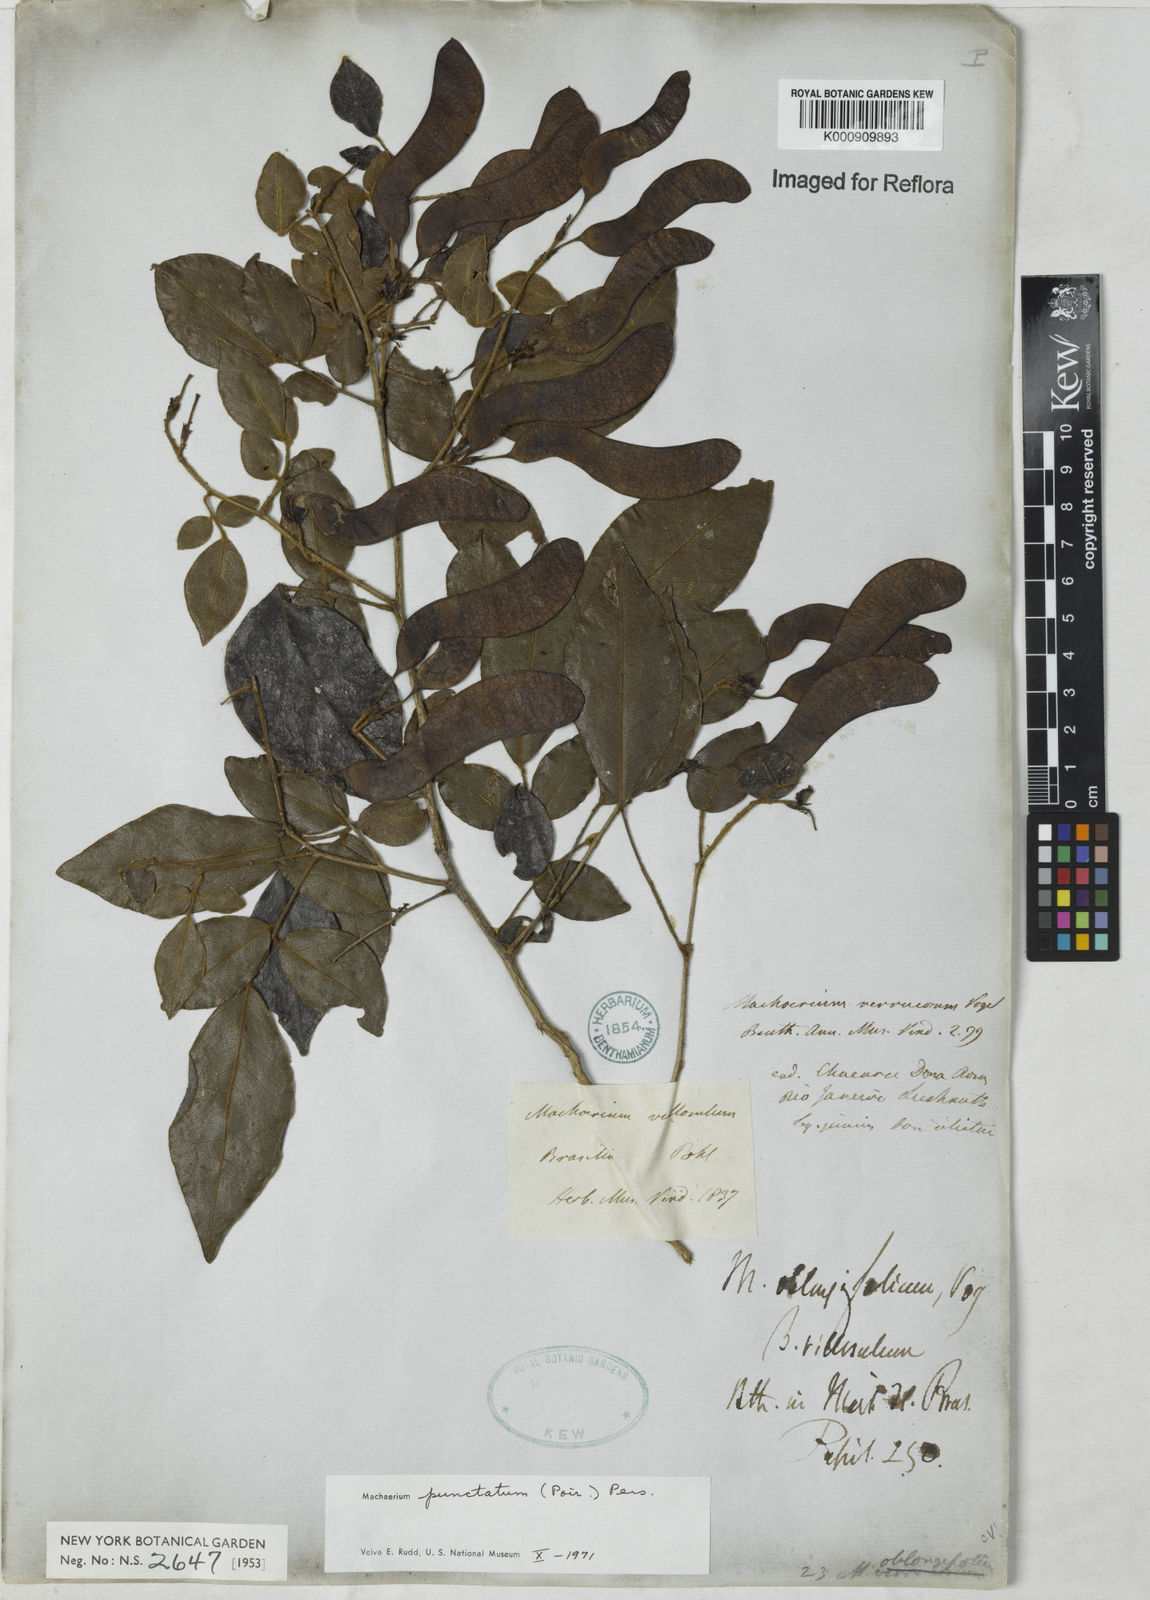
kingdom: Plantae
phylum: Tracheophyta
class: Magnoliopsida
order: Fabales
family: Fabaceae
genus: Machaerium
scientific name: Machaerium punctatum
